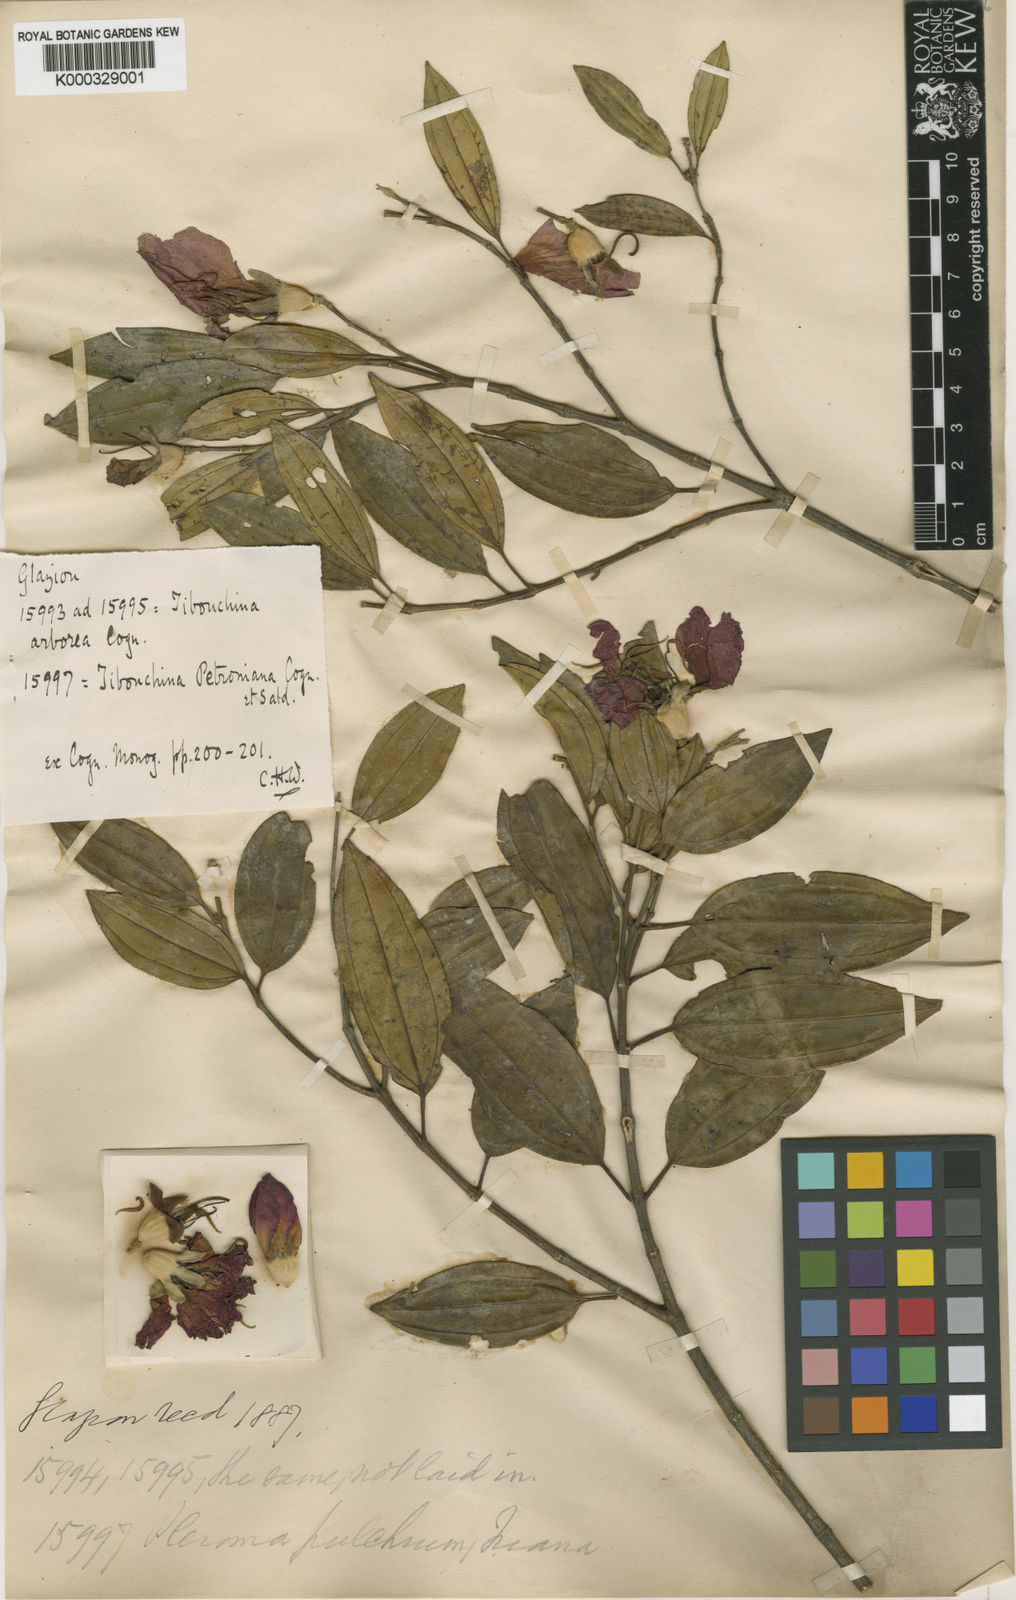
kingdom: Plantae
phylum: Tracheophyta
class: Magnoliopsida
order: Myrtales
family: Melastomataceae
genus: Pleroma
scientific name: Pleroma raddianum
